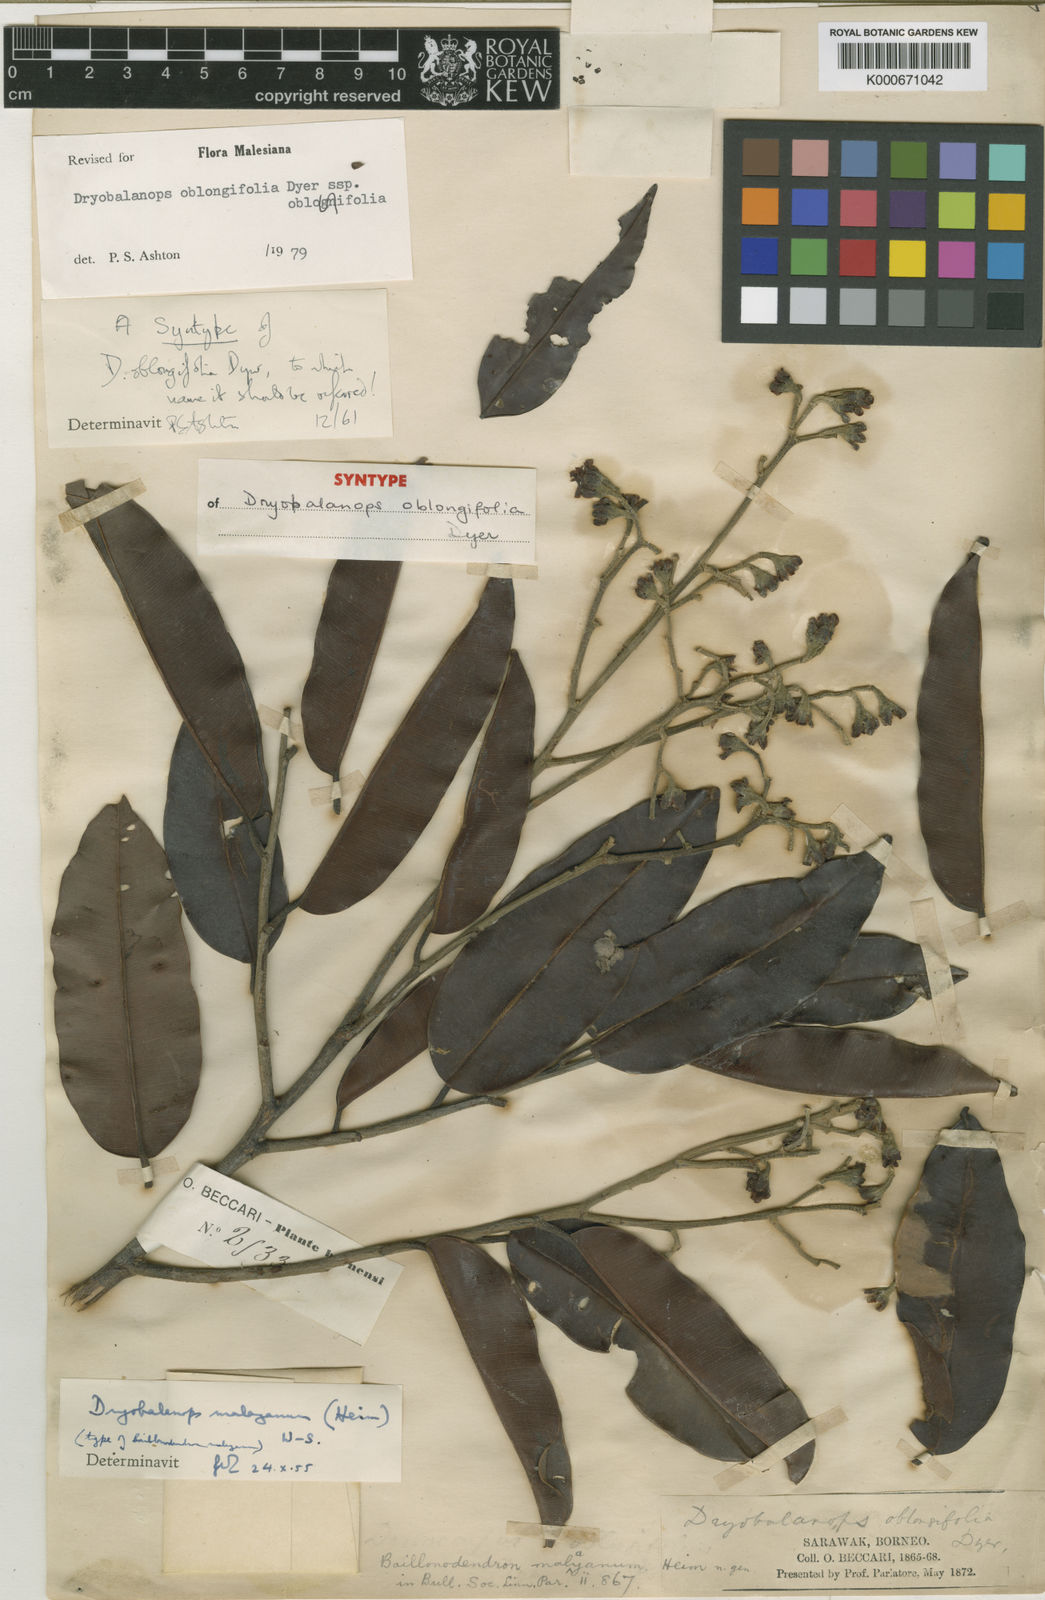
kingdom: Plantae
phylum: Tracheophyta
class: Magnoliopsida
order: Malvales
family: Dipterocarpaceae
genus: Dryobalanops
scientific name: Dryobalanops oblongifolia
